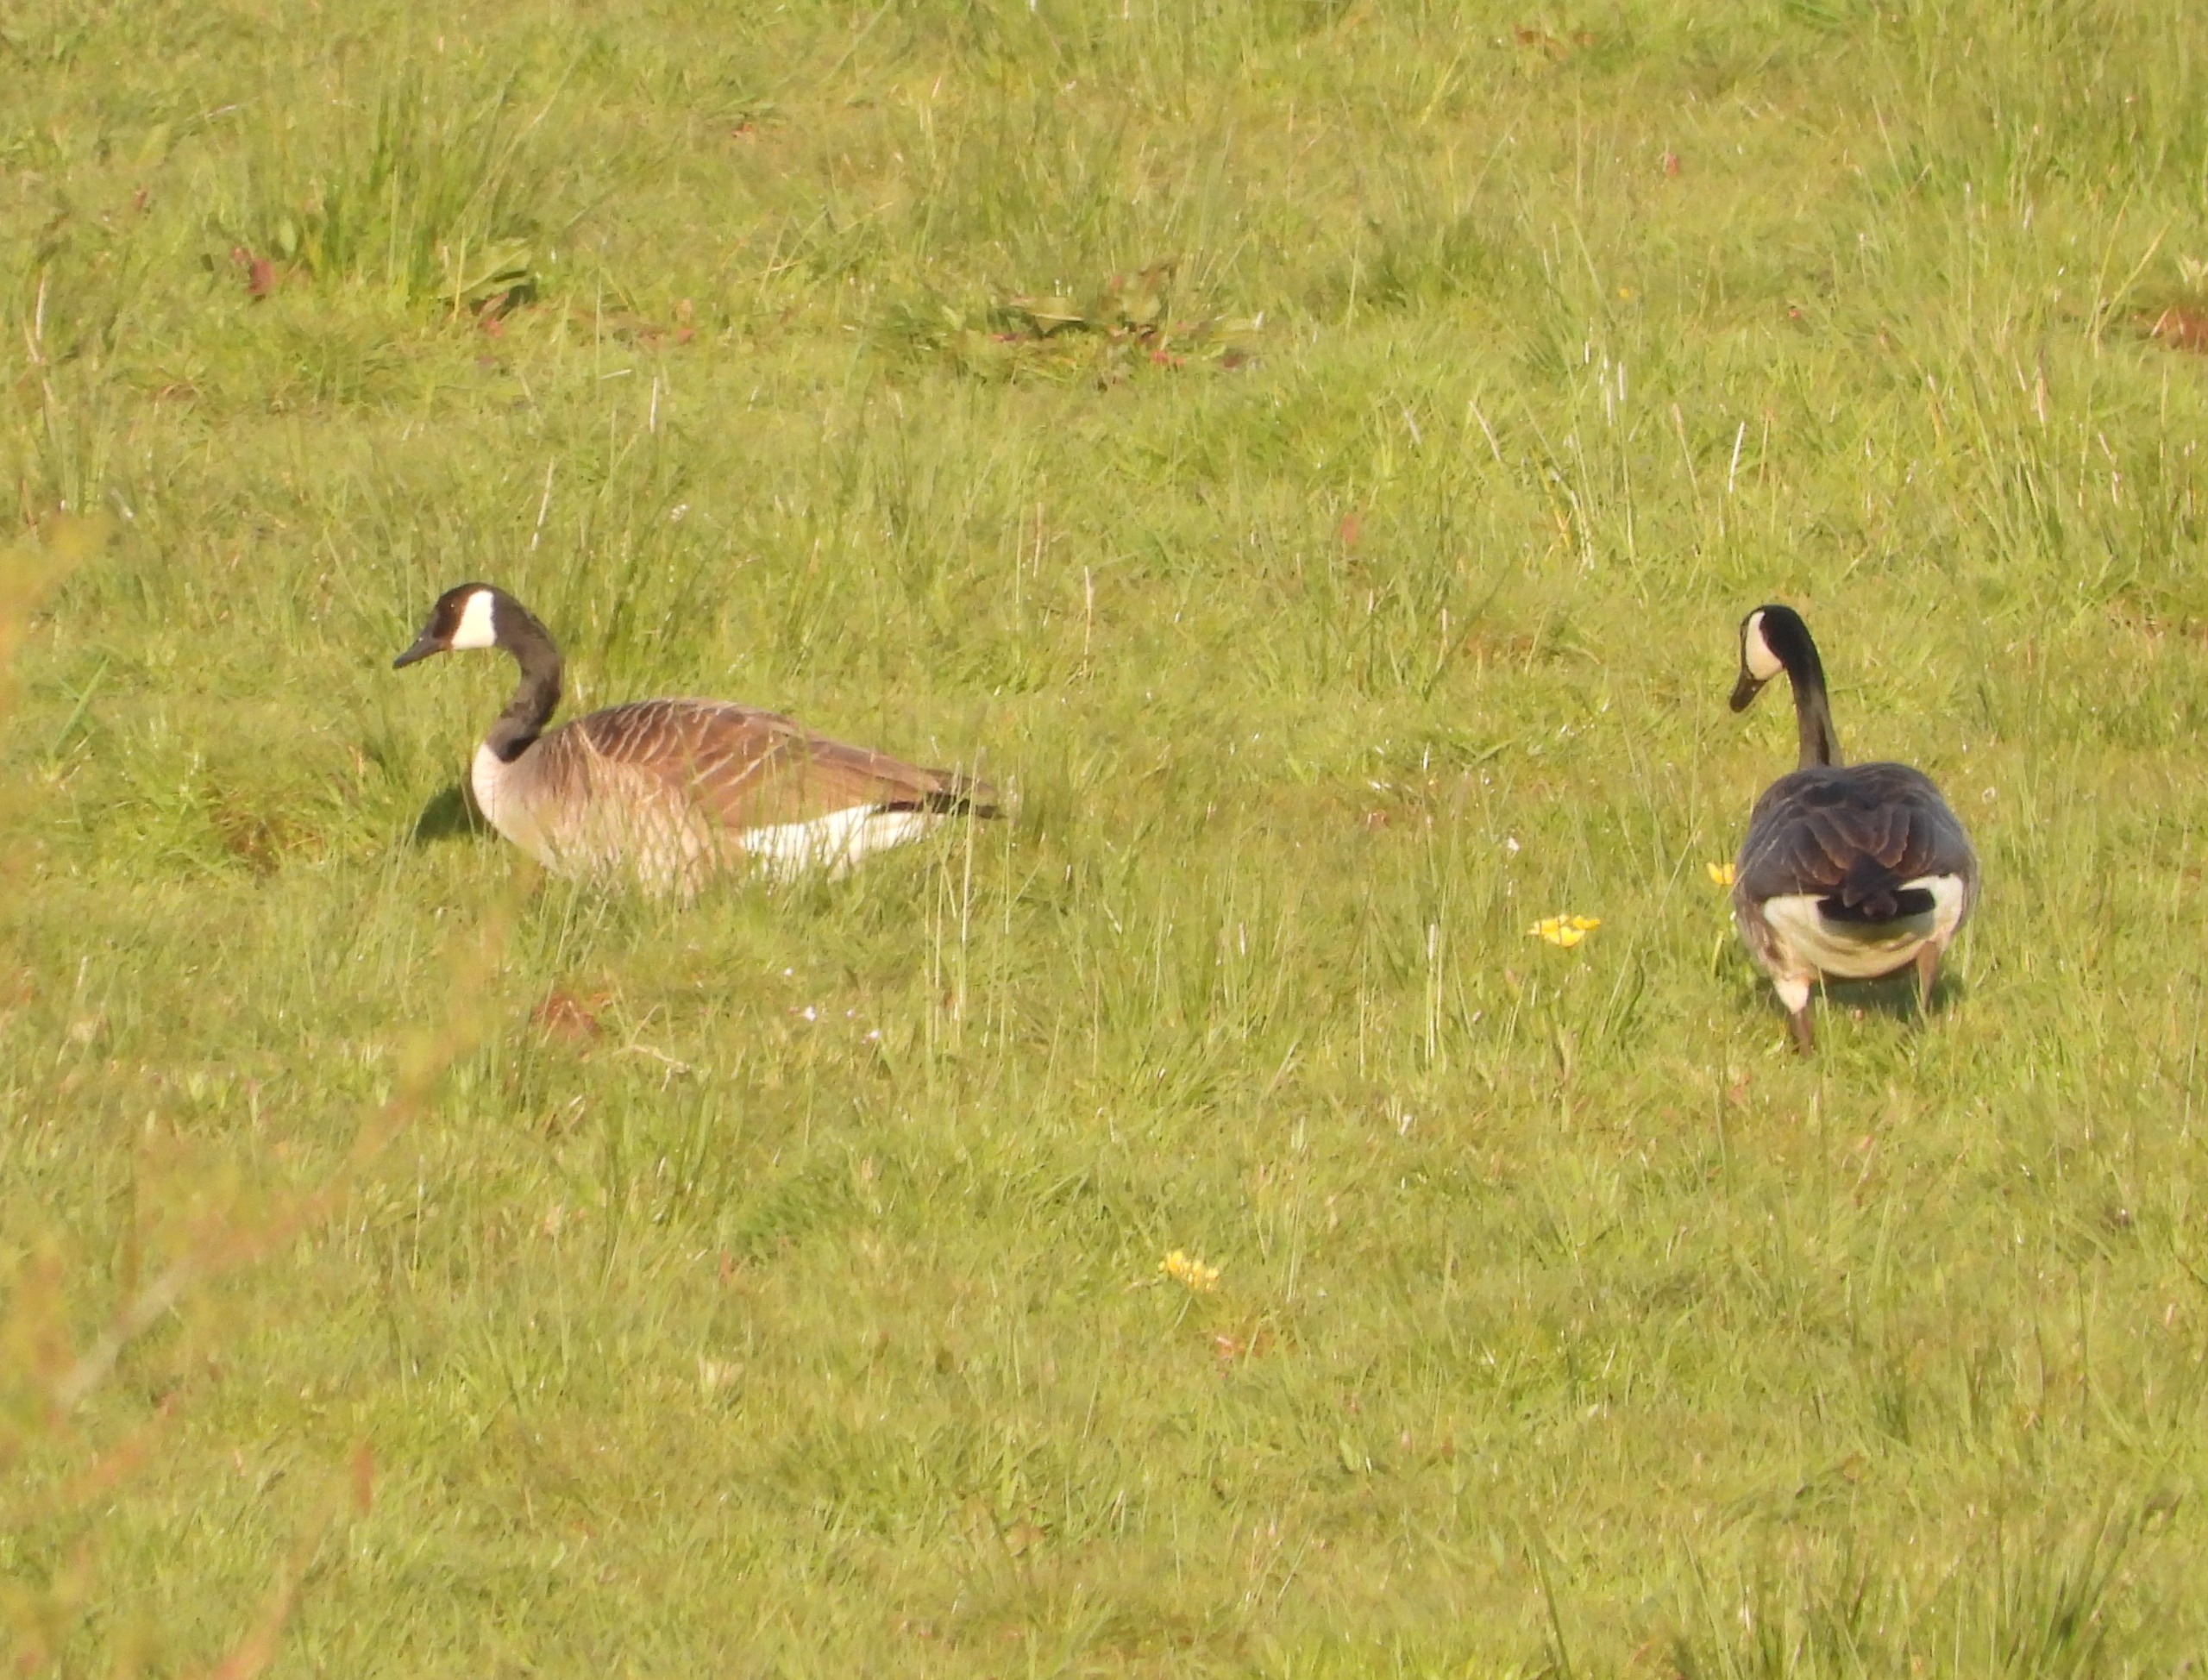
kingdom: Animalia
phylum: Chordata
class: Aves
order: Anseriformes
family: Anatidae
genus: Branta
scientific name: Branta canadensis
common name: Canadagås
